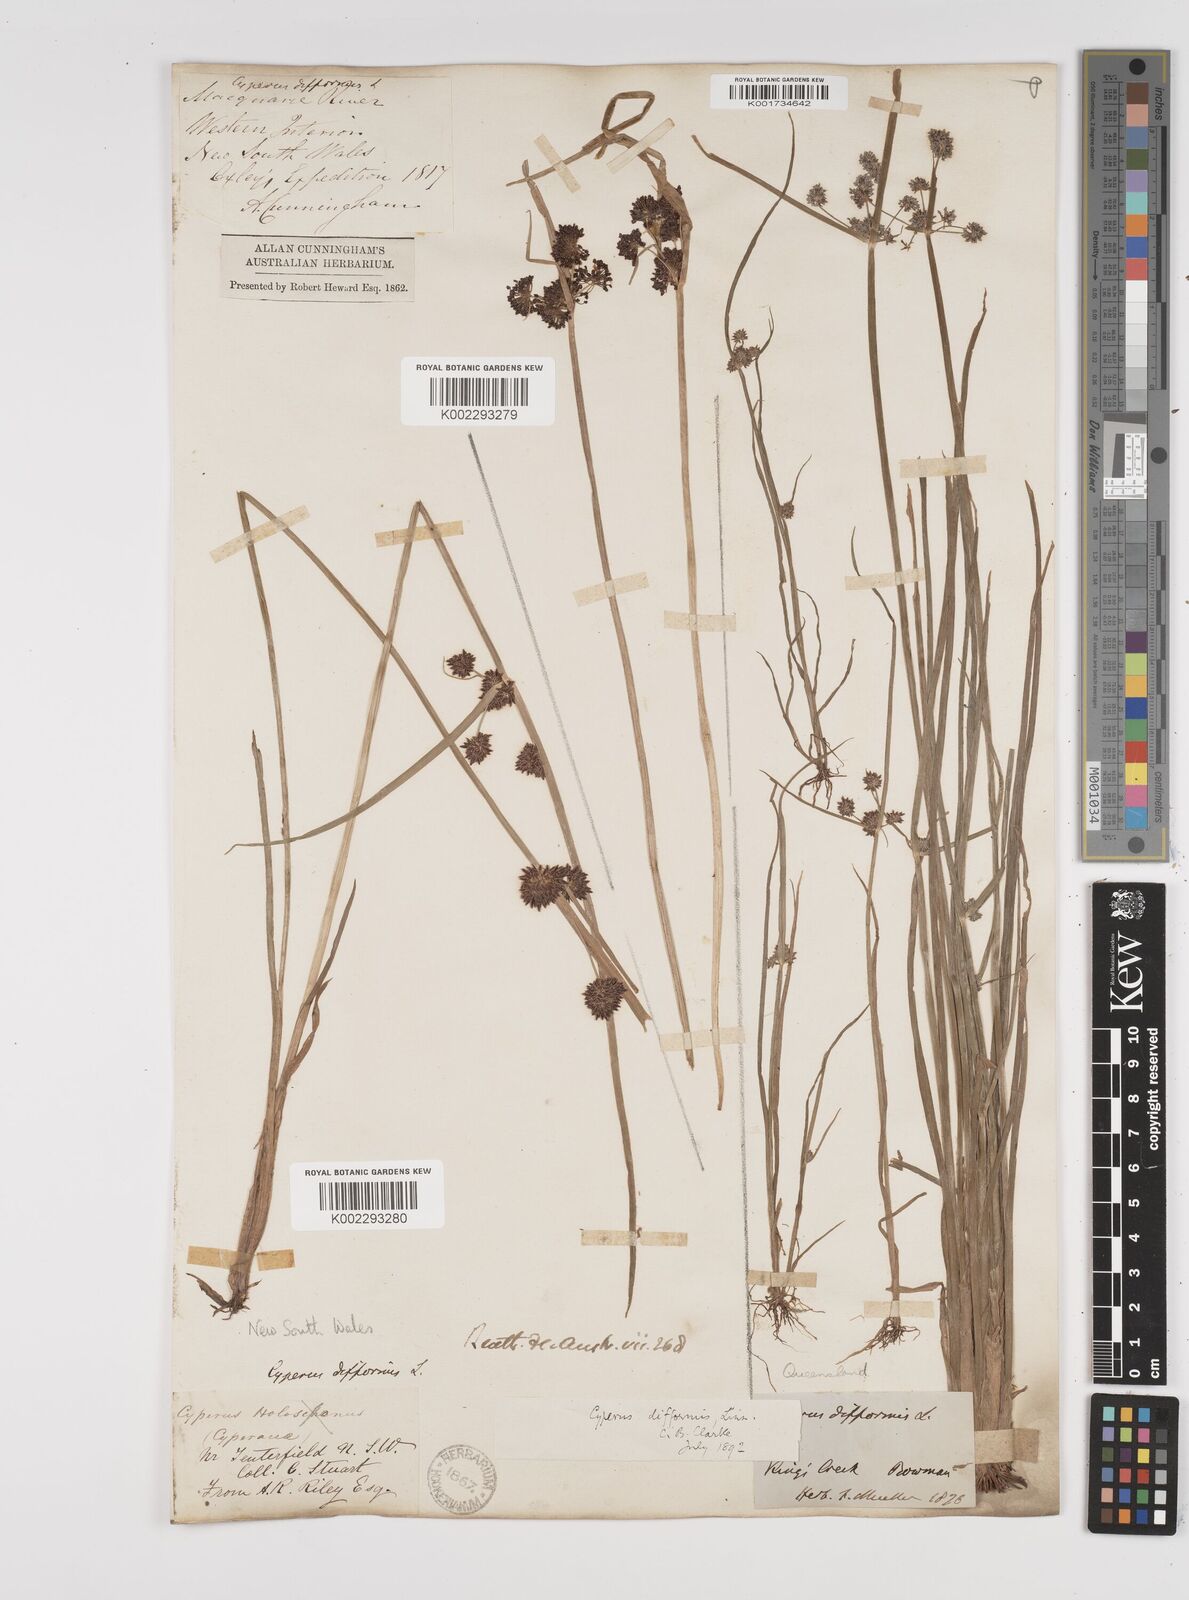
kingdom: Plantae
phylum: Tracheophyta
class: Liliopsida
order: Poales
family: Cyperaceae
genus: Cyperus
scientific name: Cyperus difformis
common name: Variable flatsedge
